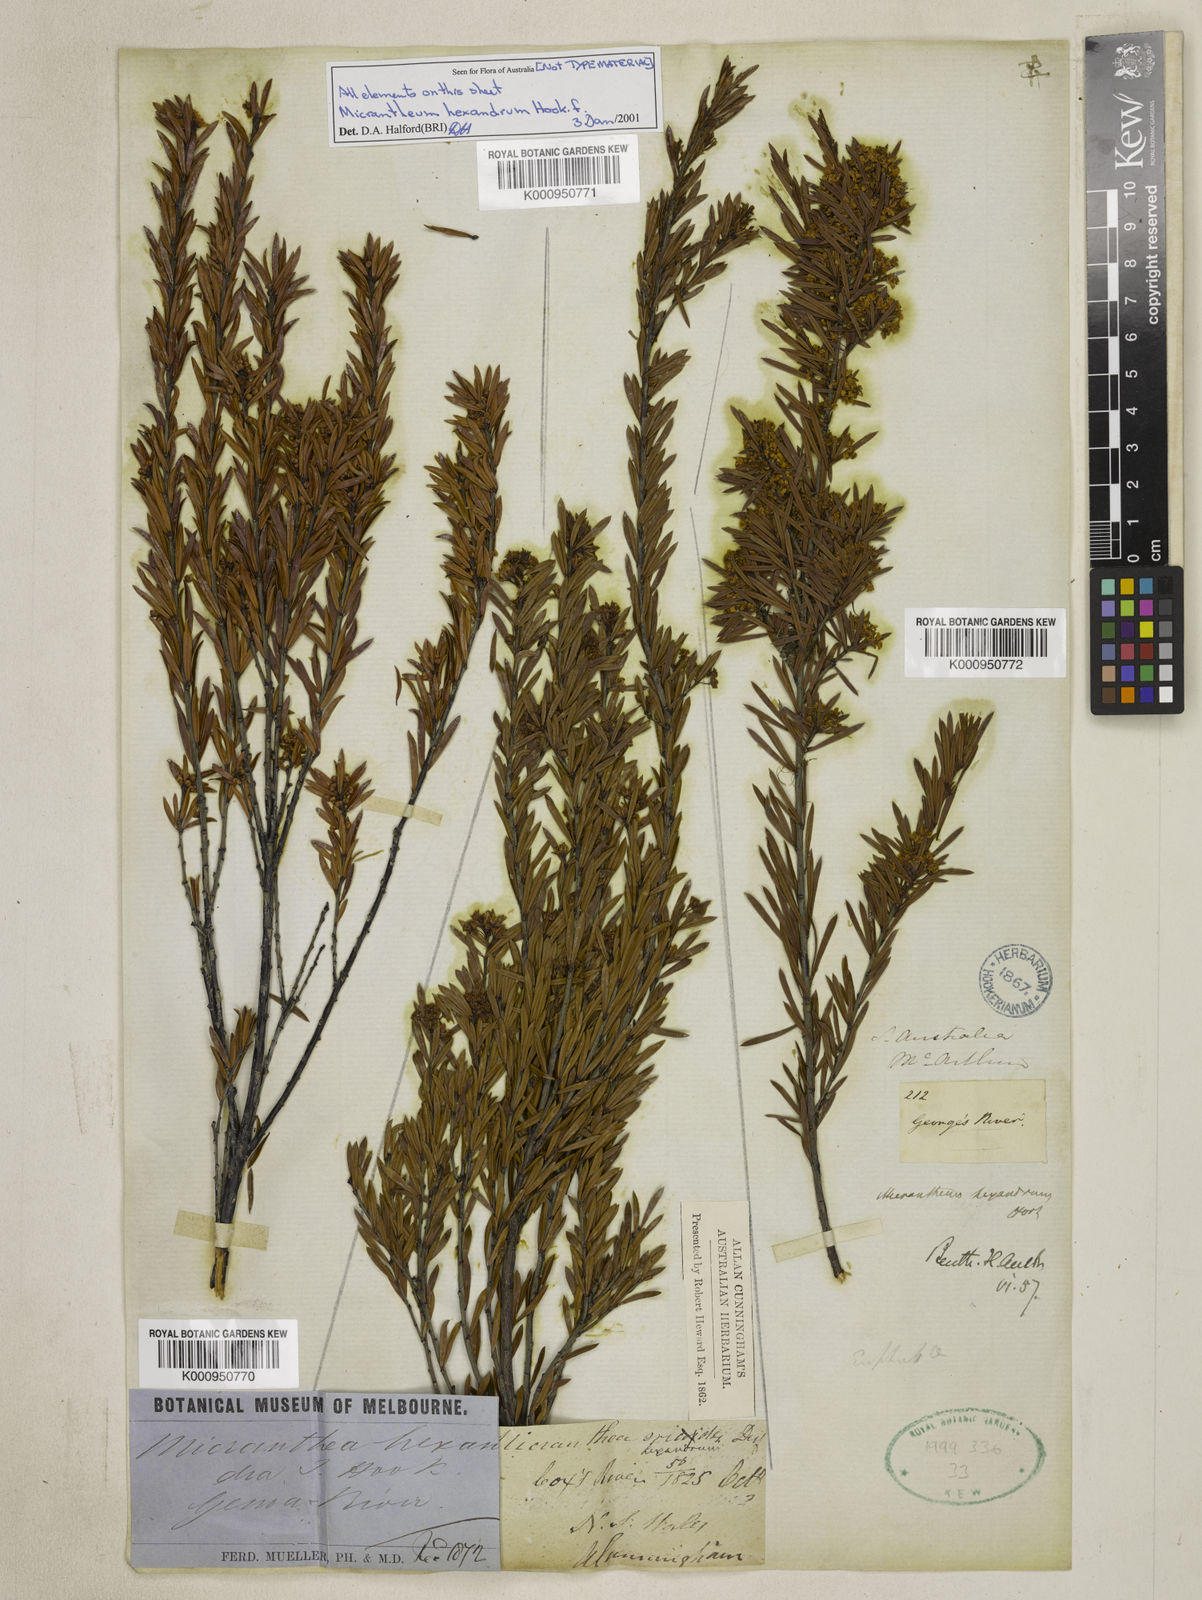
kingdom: Plantae
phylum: Tracheophyta
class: Magnoliopsida
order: Malpighiales
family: Picrodendraceae
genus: Micrantheum
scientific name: Micrantheum hexandrum
